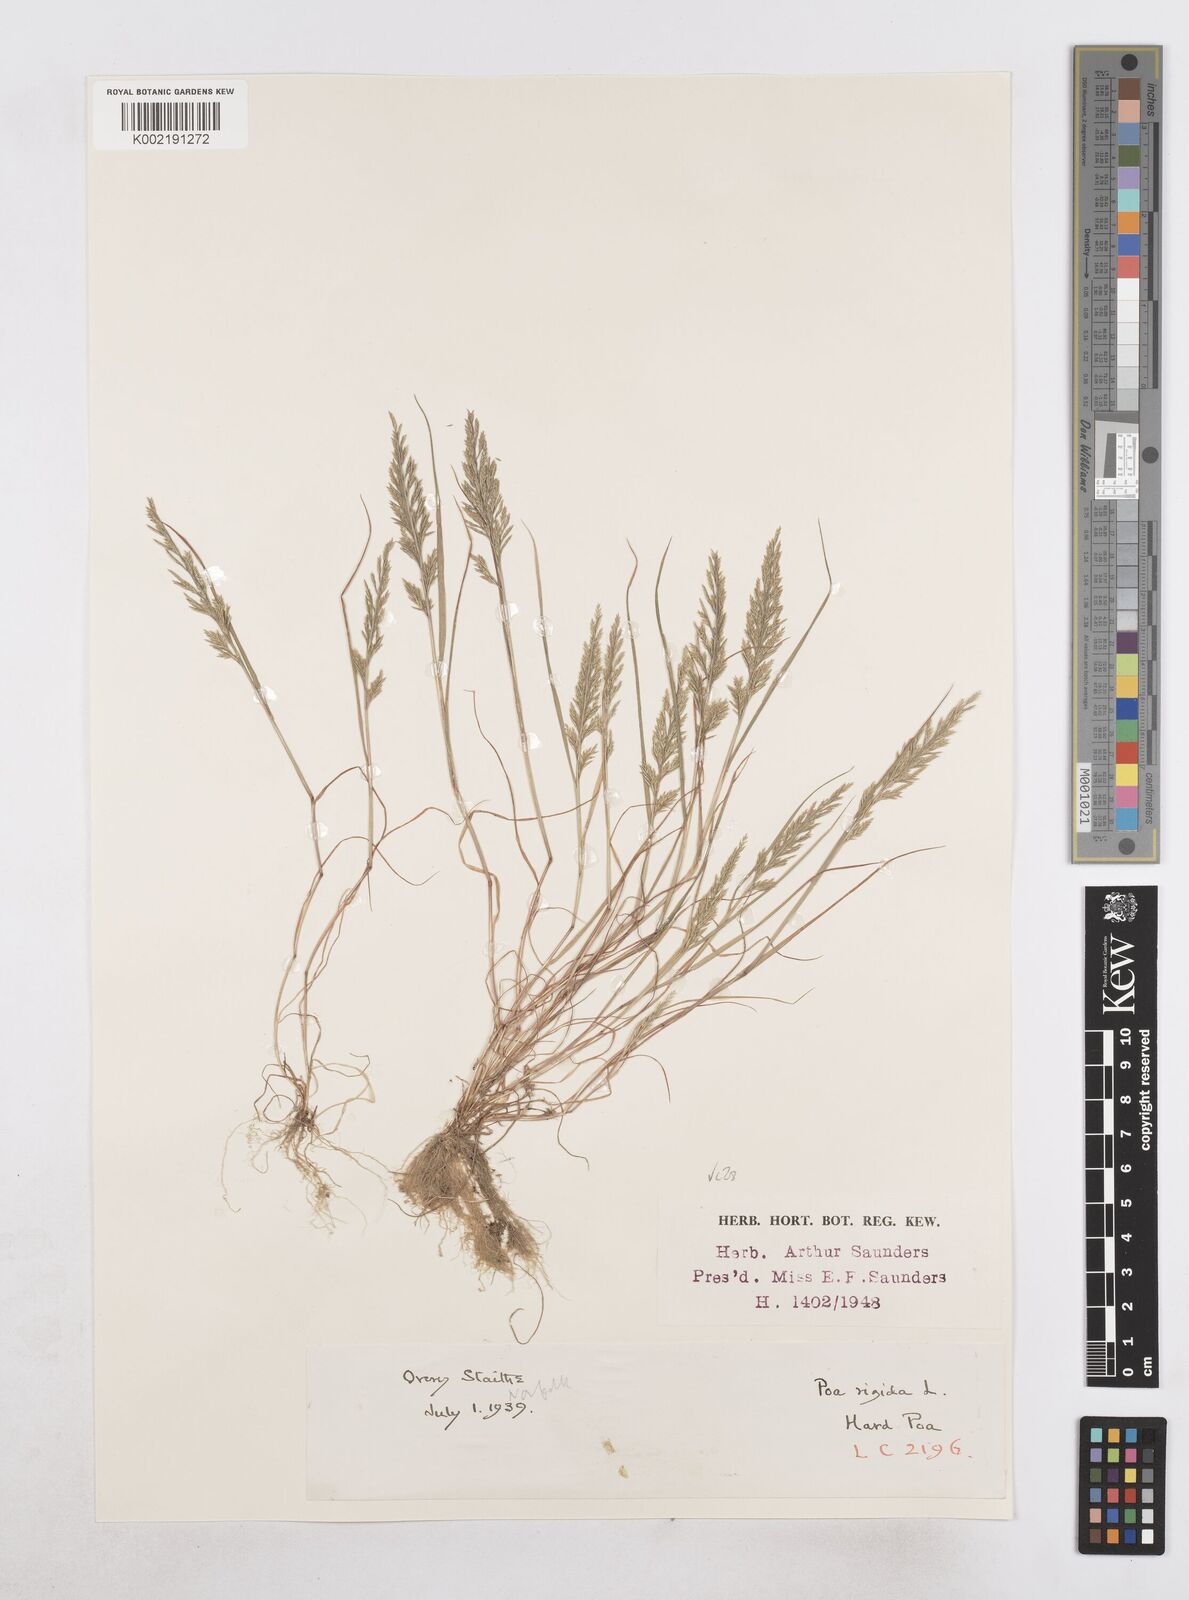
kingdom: Plantae
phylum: Tracheophyta
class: Liliopsida
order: Poales
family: Poaceae
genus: Catapodium
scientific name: Catapodium rigidum
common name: Fern-grass
